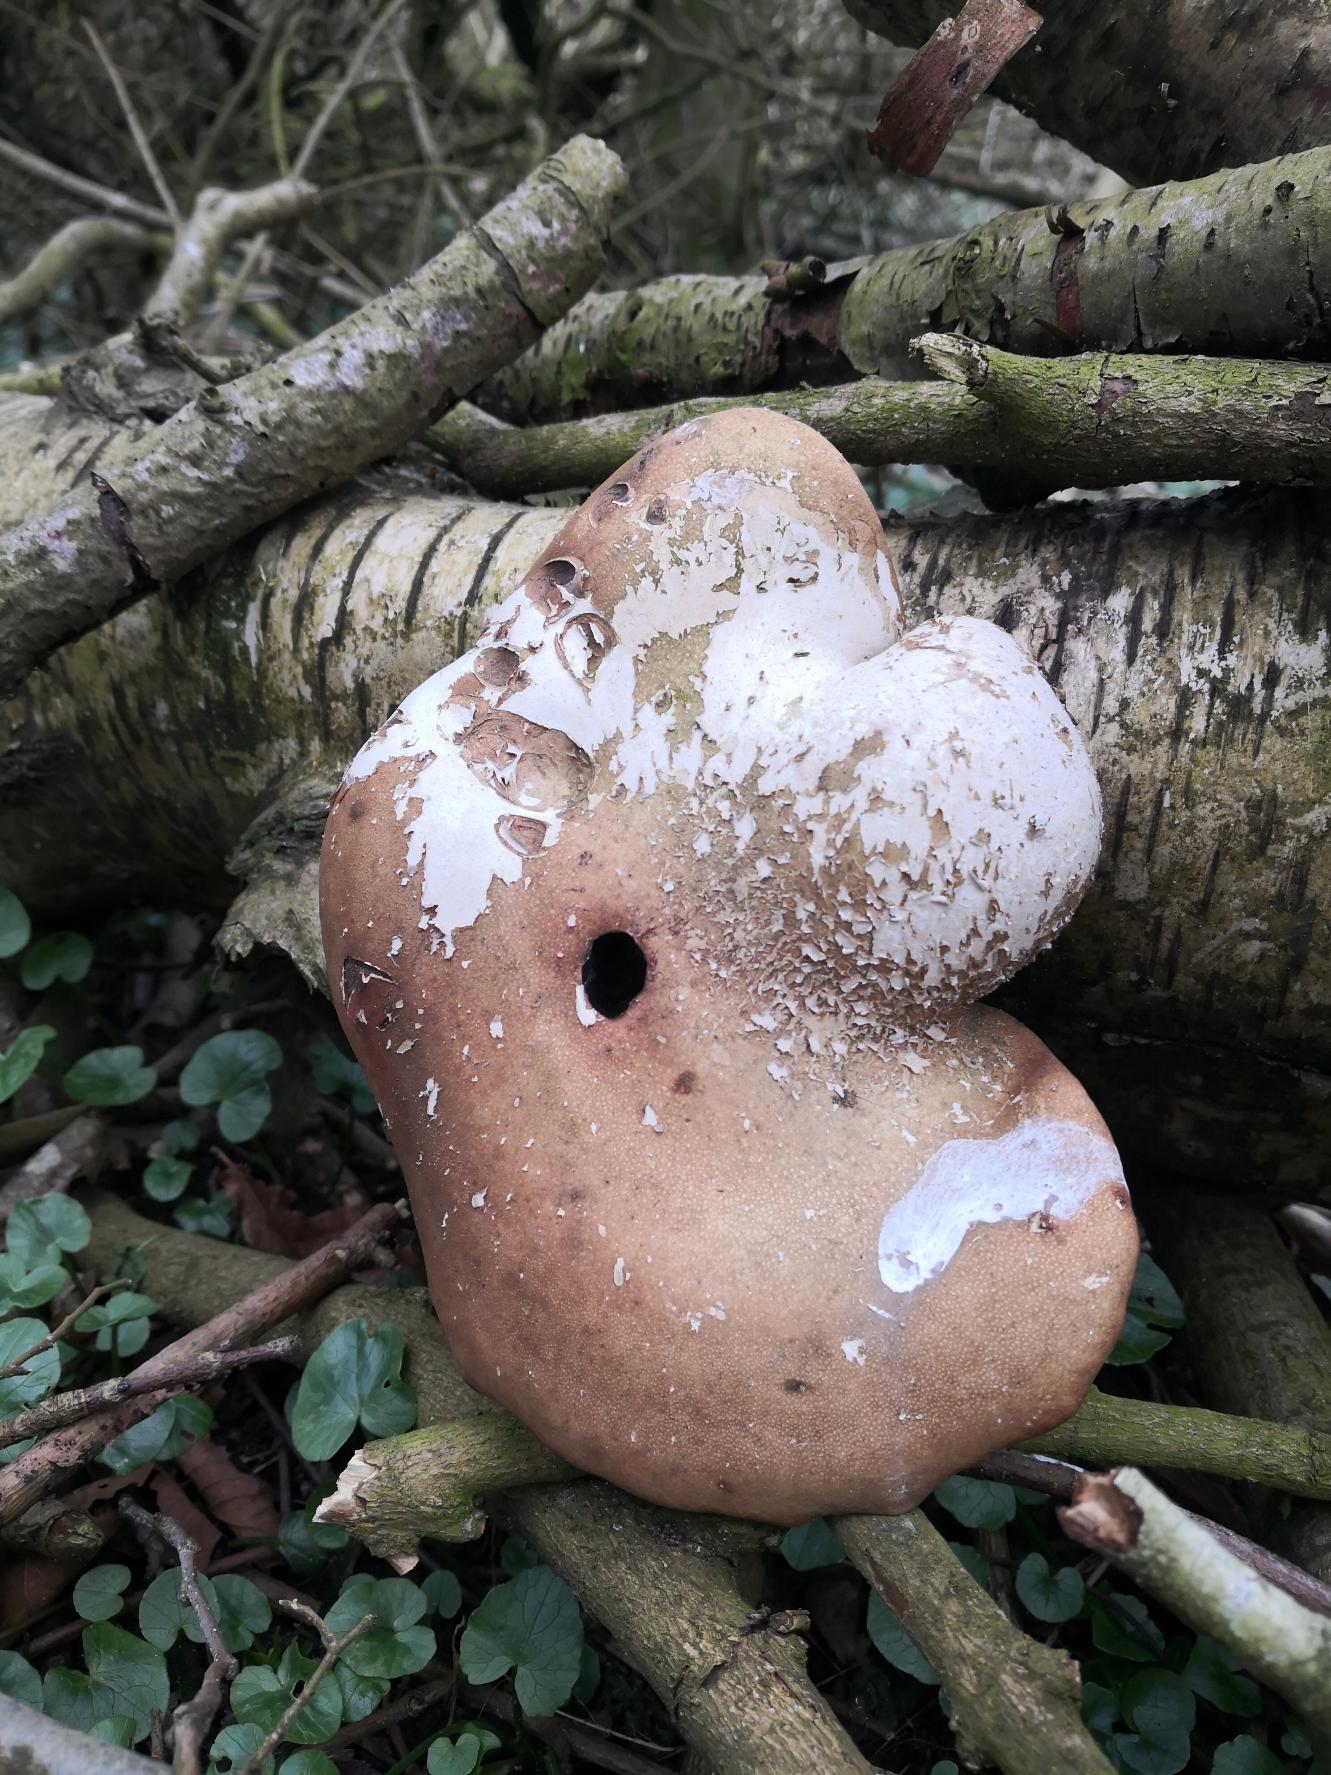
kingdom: Fungi
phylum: Basidiomycota
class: Agaricomycetes
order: Polyporales
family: Fomitopsidaceae
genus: Fomitopsis
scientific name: Fomitopsis betulina
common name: Birkeporesvamp
